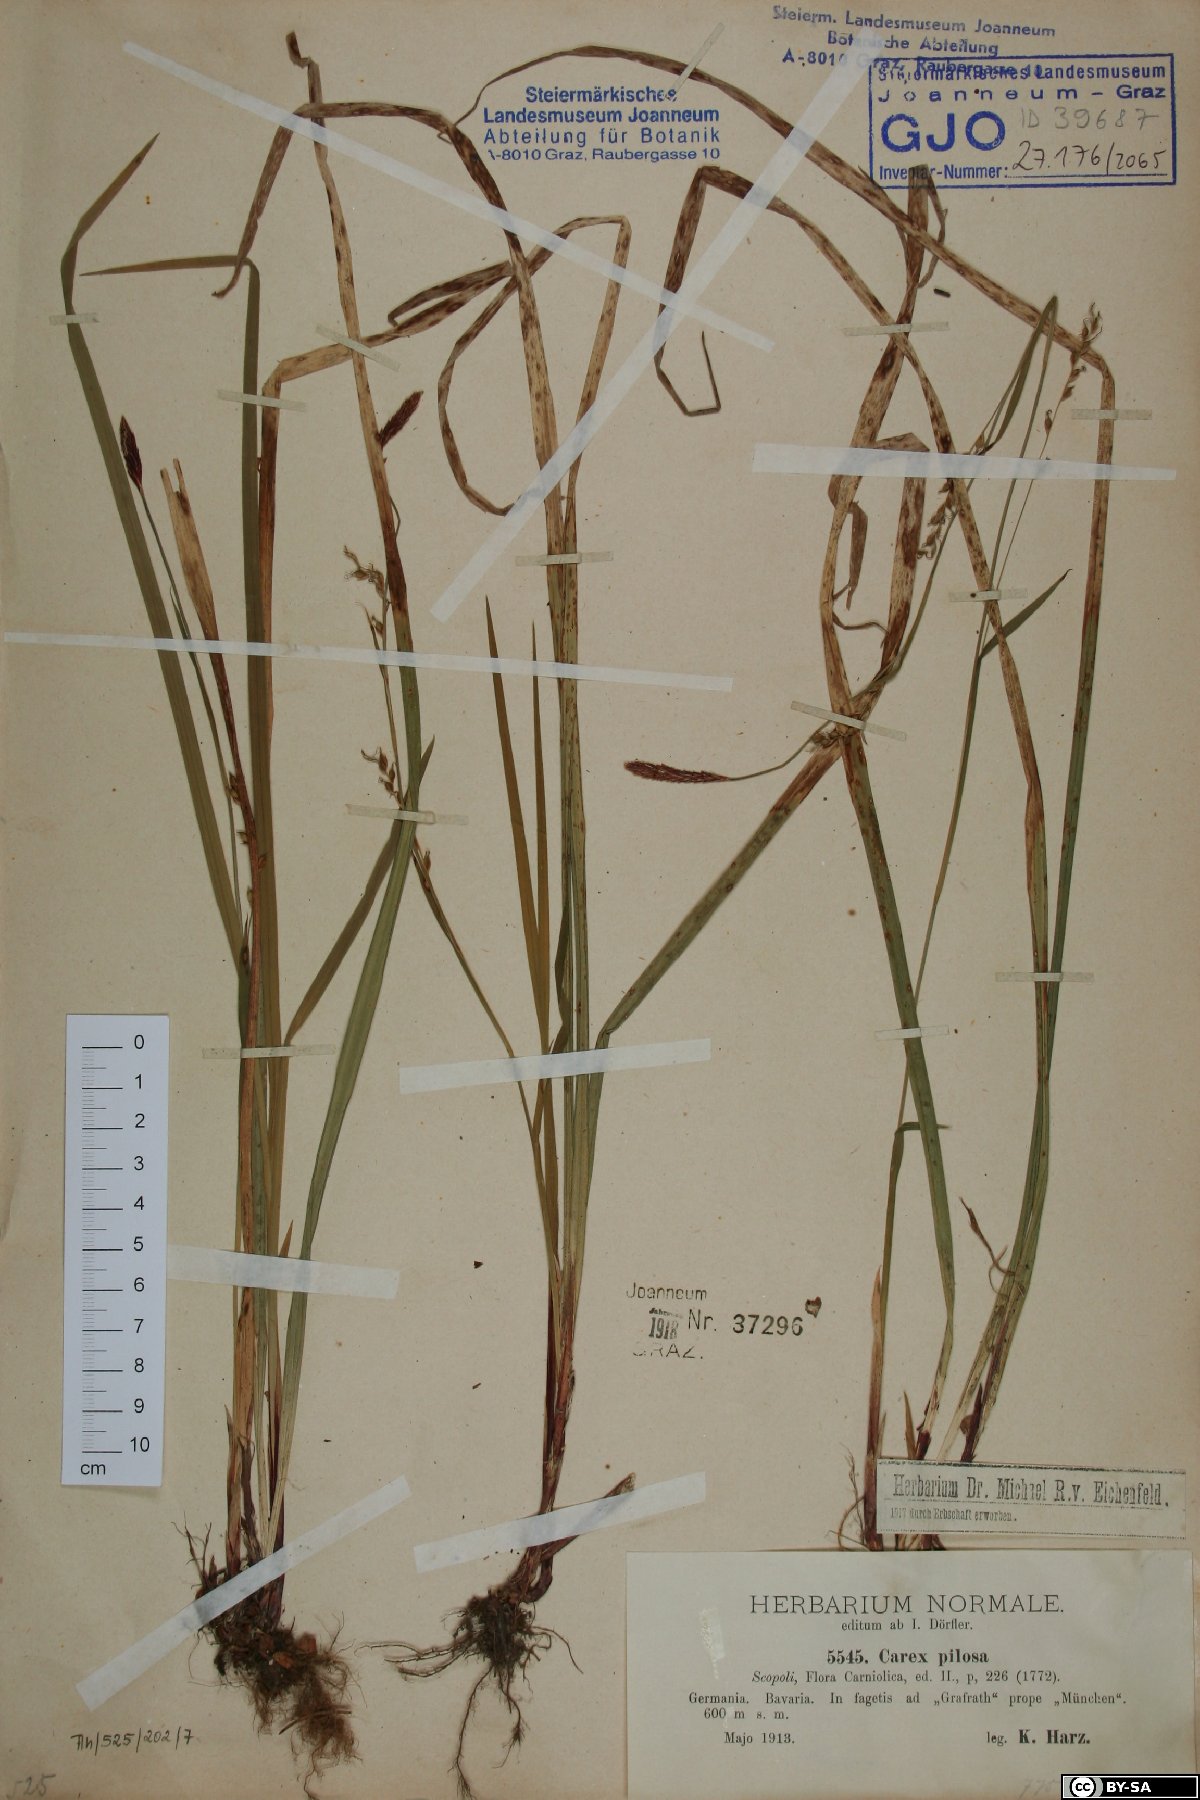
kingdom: Plantae
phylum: Tracheophyta
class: Liliopsida
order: Poales
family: Cyperaceae
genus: Carex
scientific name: Carex pilosa
